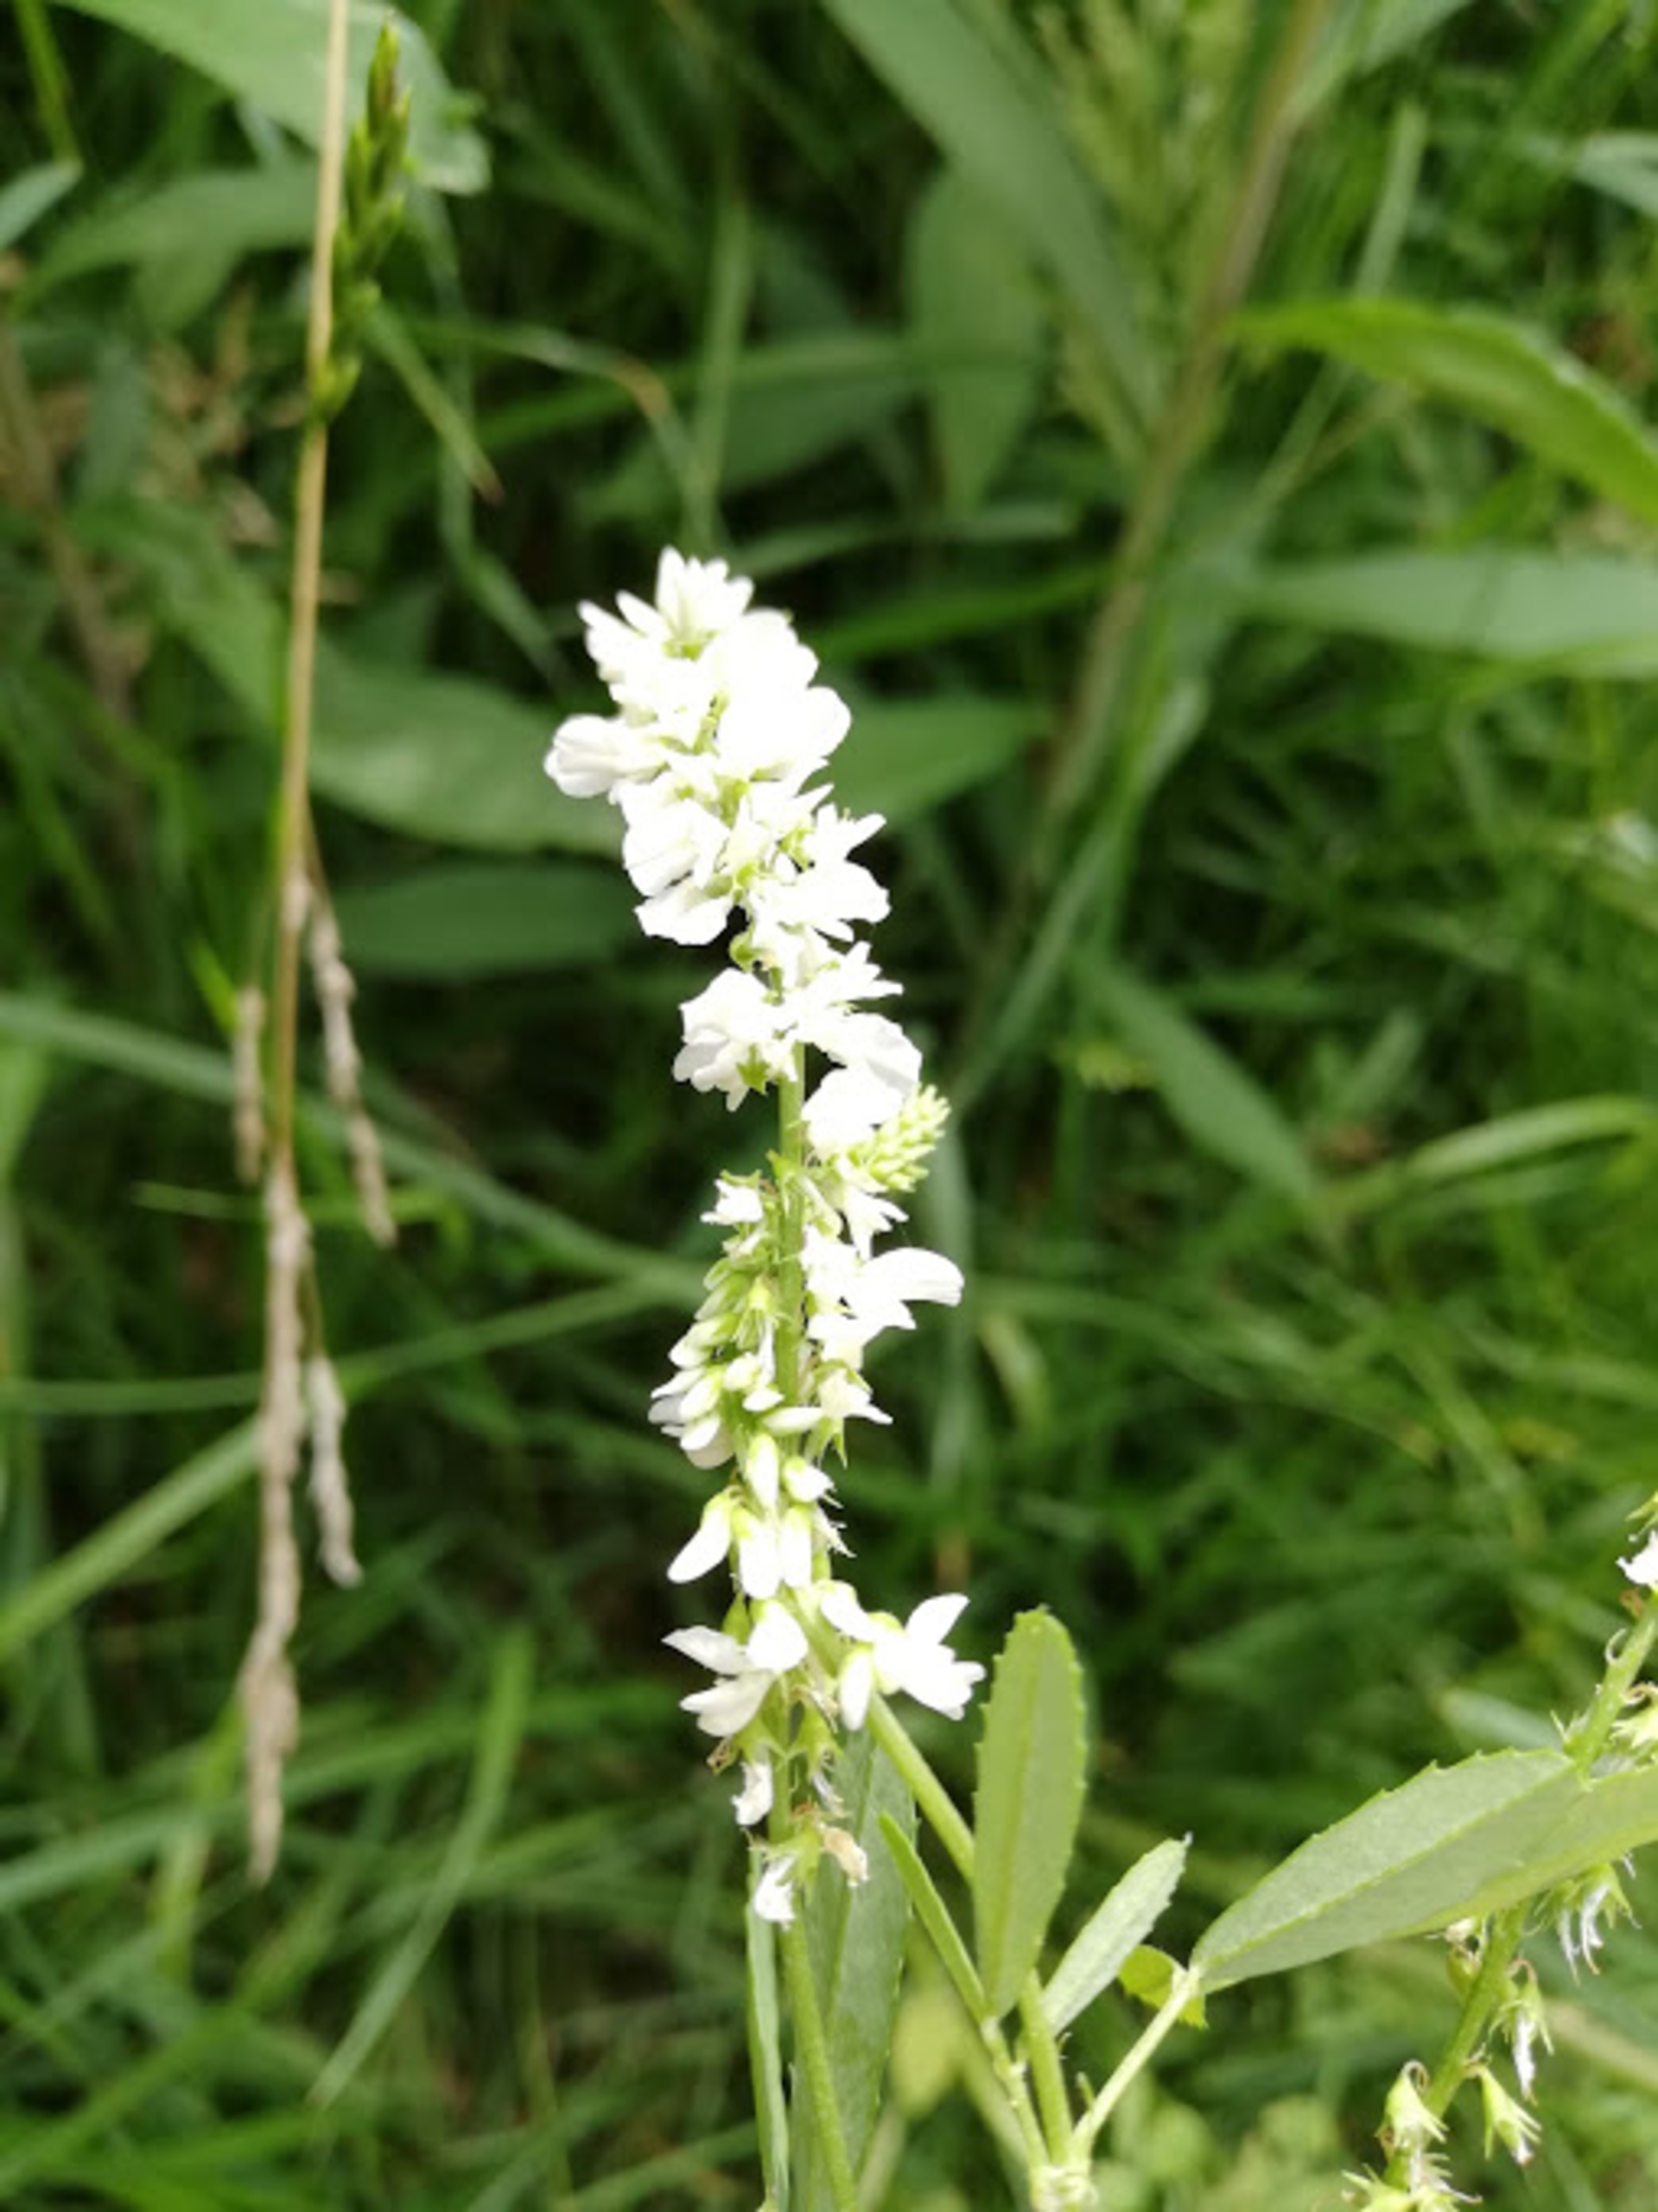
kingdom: Plantae
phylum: Tracheophyta
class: Magnoliopsida
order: Fabales
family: Fabaceae
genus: Melilotus
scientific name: Melilotus albus
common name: Hvid stenkløver
